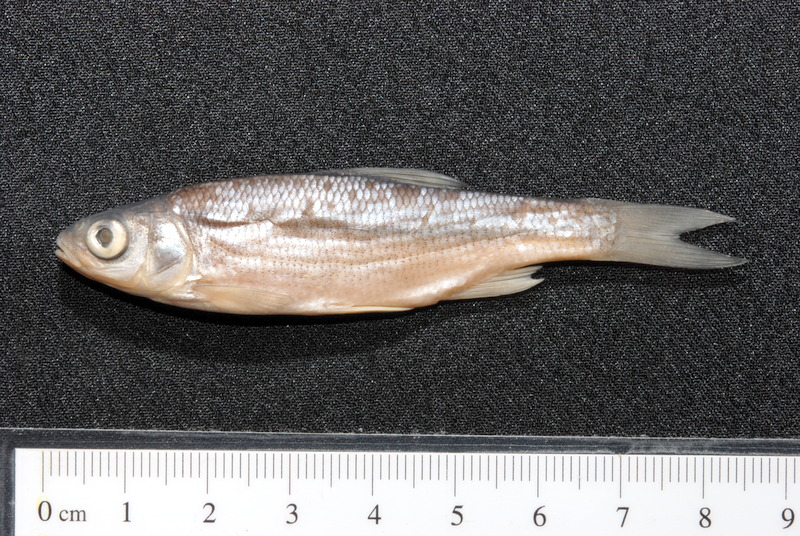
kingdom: Animalia
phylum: Chordata
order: Cypriniformes
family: Cyprinidae
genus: Leuciscus
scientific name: Leuciscus idus
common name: Ide
